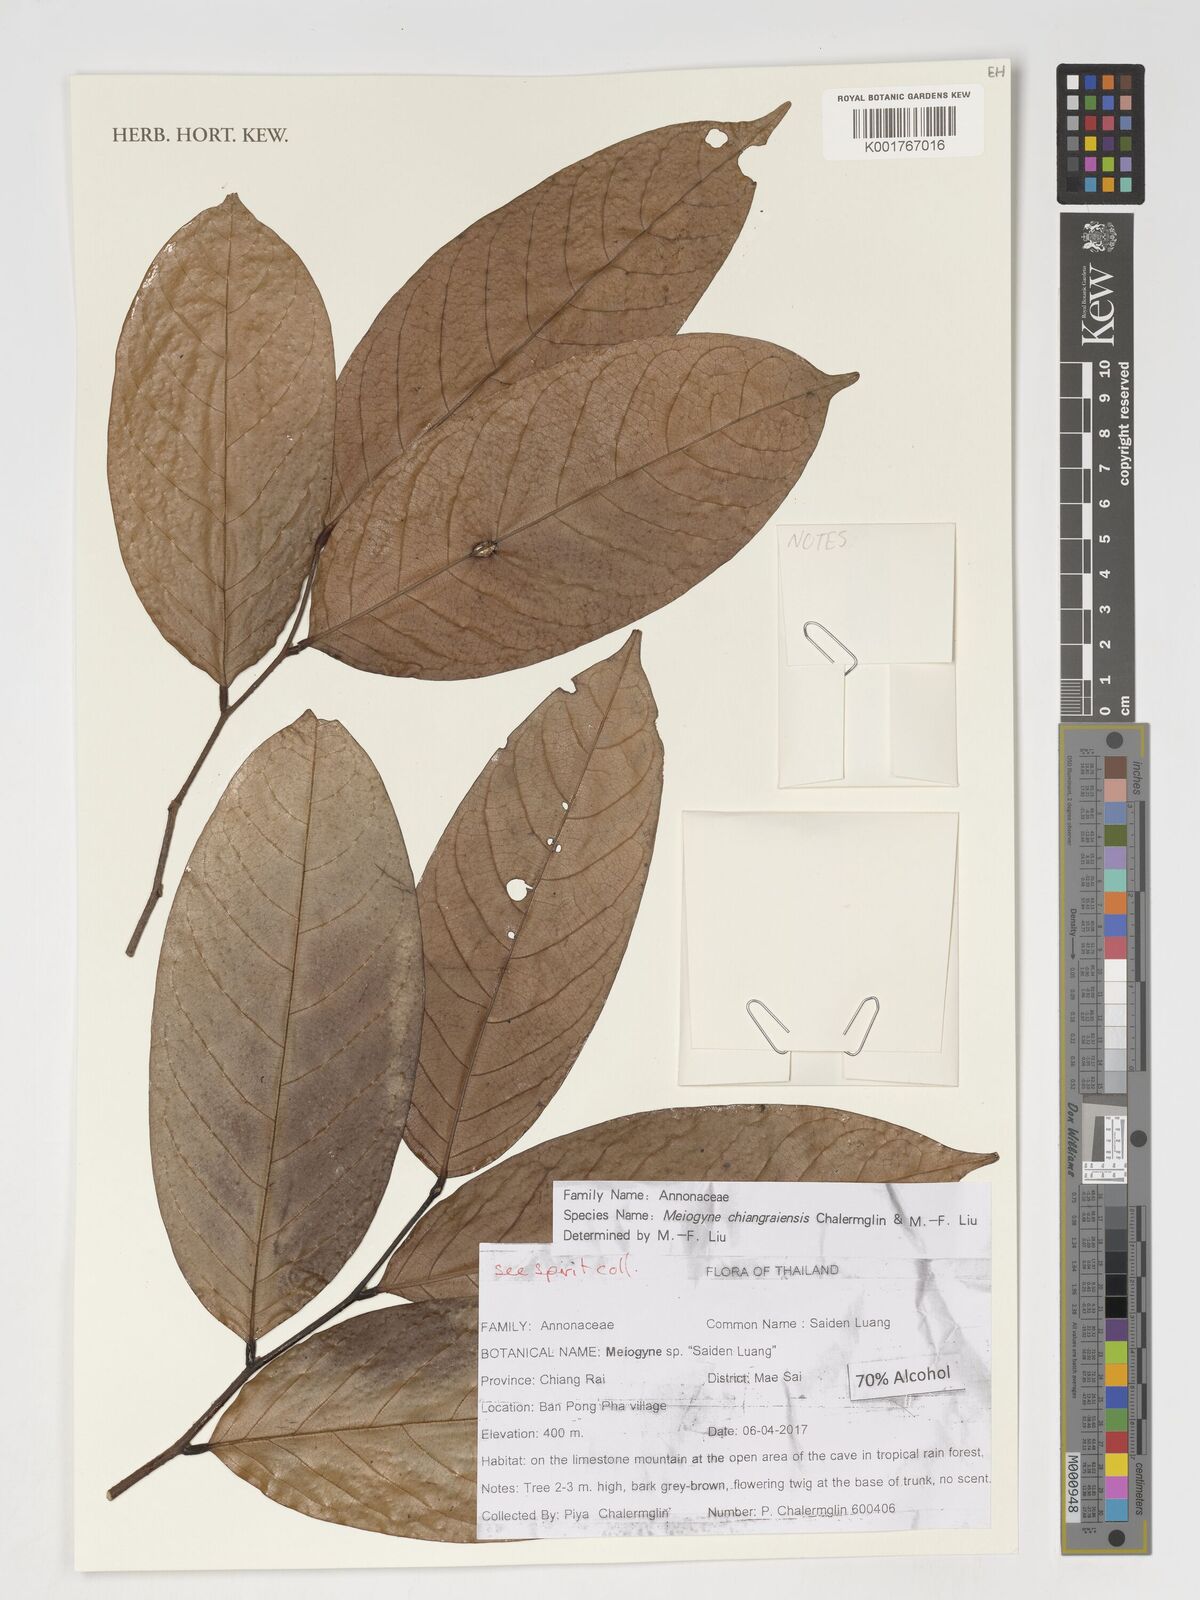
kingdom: Plantae
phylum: Tracheophyta
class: Magnoliopsida
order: Magnoliales
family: Annonaceae
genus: Meiogyne
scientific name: Meiogyne chiangraiensis
